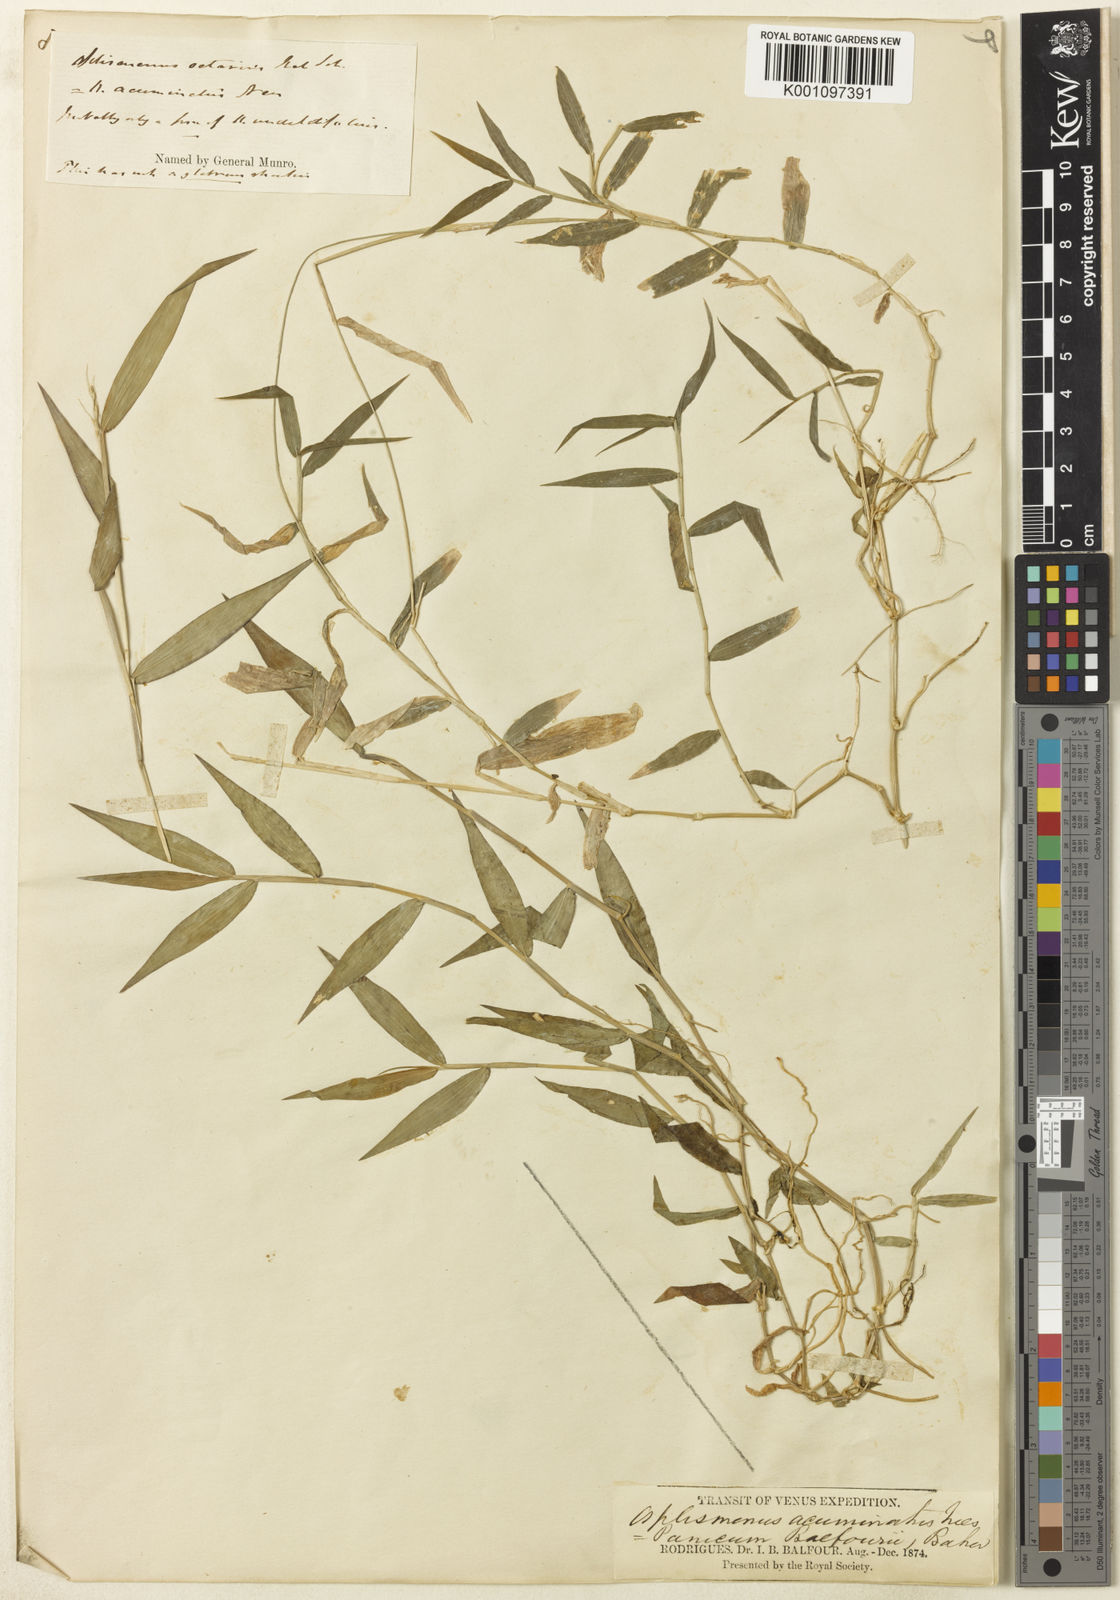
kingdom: Plantae
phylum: Tracheophyta
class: Liliopsida
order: Poales
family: Poaceae
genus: Oplismenus
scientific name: Oplismenus hirtellus
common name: Basketgrass
